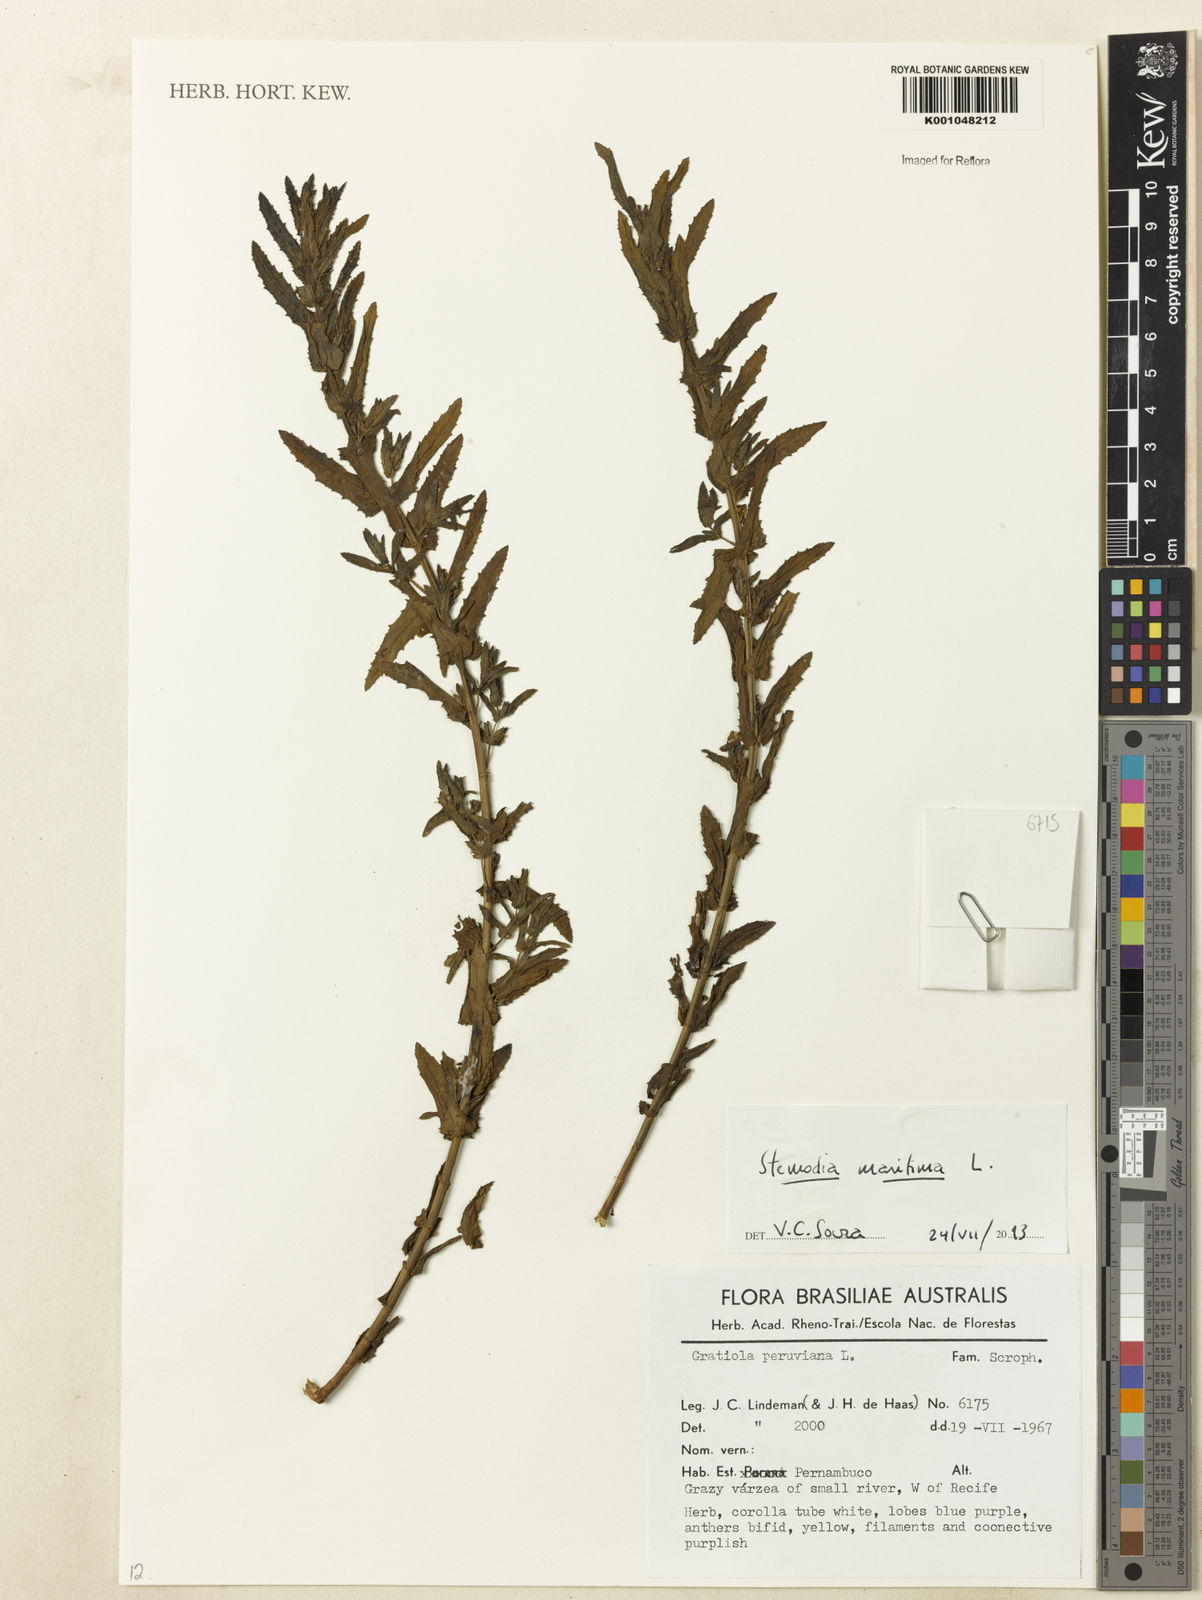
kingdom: Plantae
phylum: Tracheophyta
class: Magnoliopsida
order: Lamiales
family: Plantaginaceae
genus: Stemodia
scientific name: Stemodia maritima
